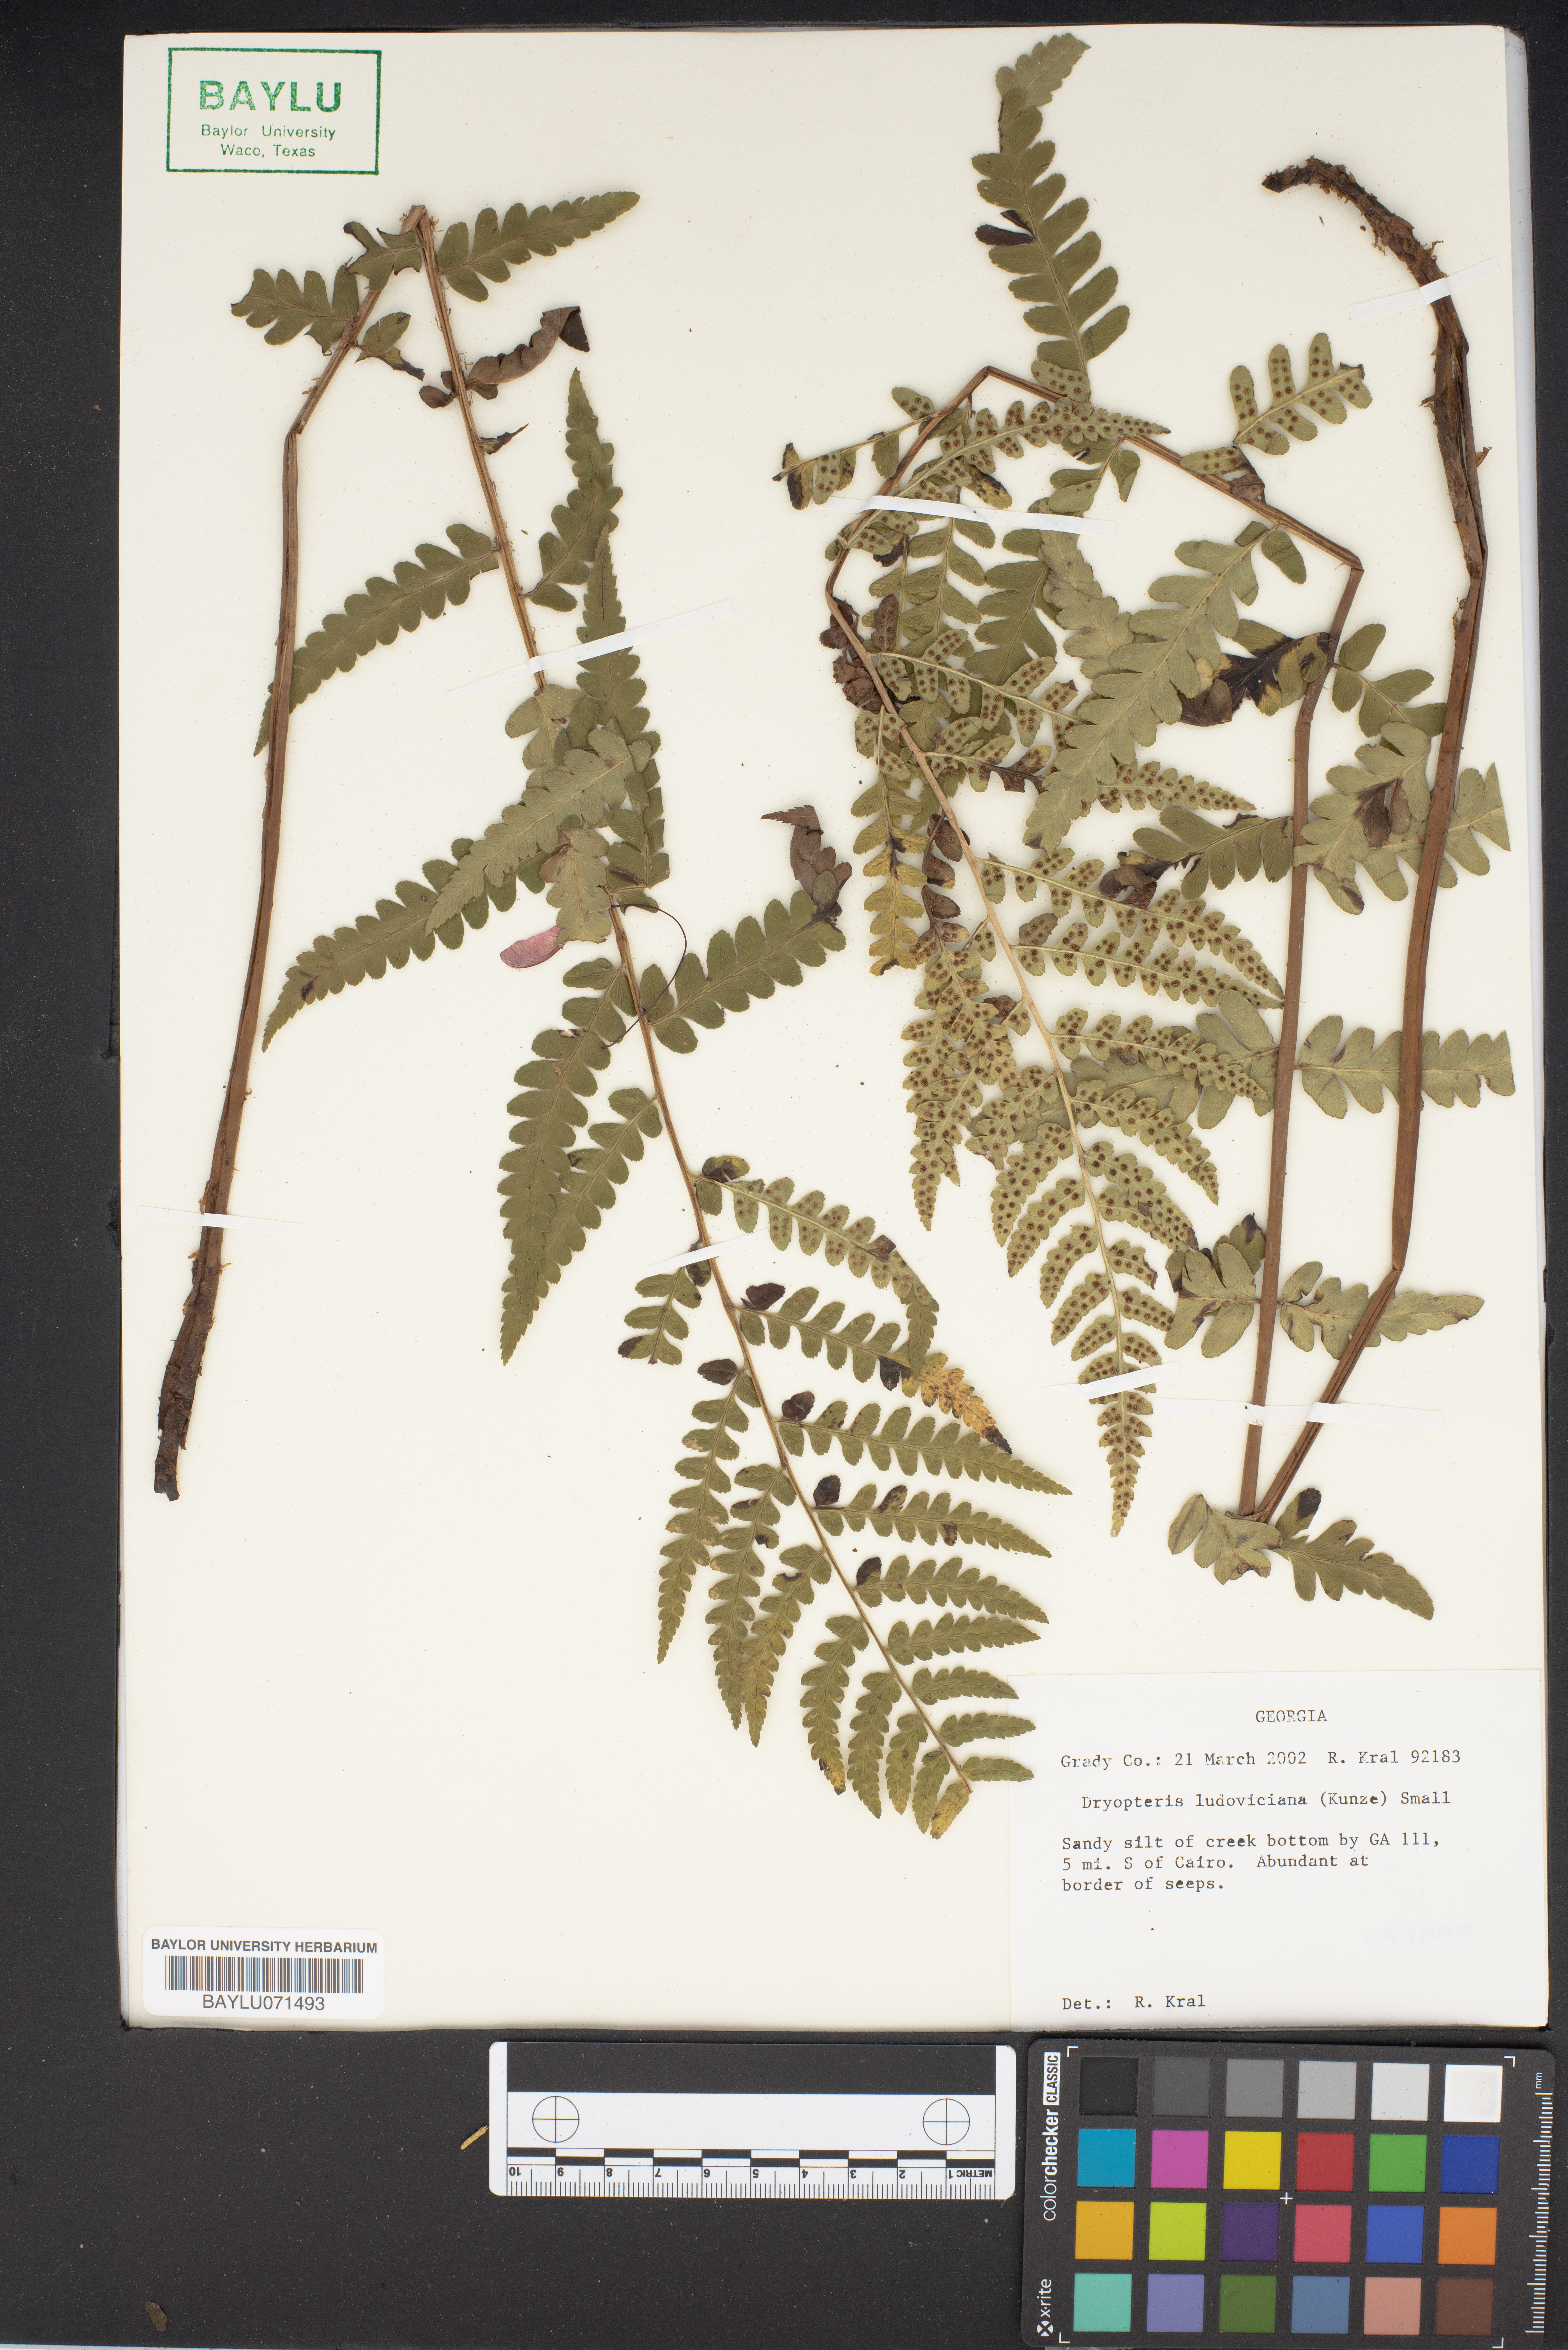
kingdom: Plantae
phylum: Tracheophyta
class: Polypodiopsida
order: Polypodiales
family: Dryopteridaceae
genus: Dryopteris
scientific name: Dryopteris ludoviciana
